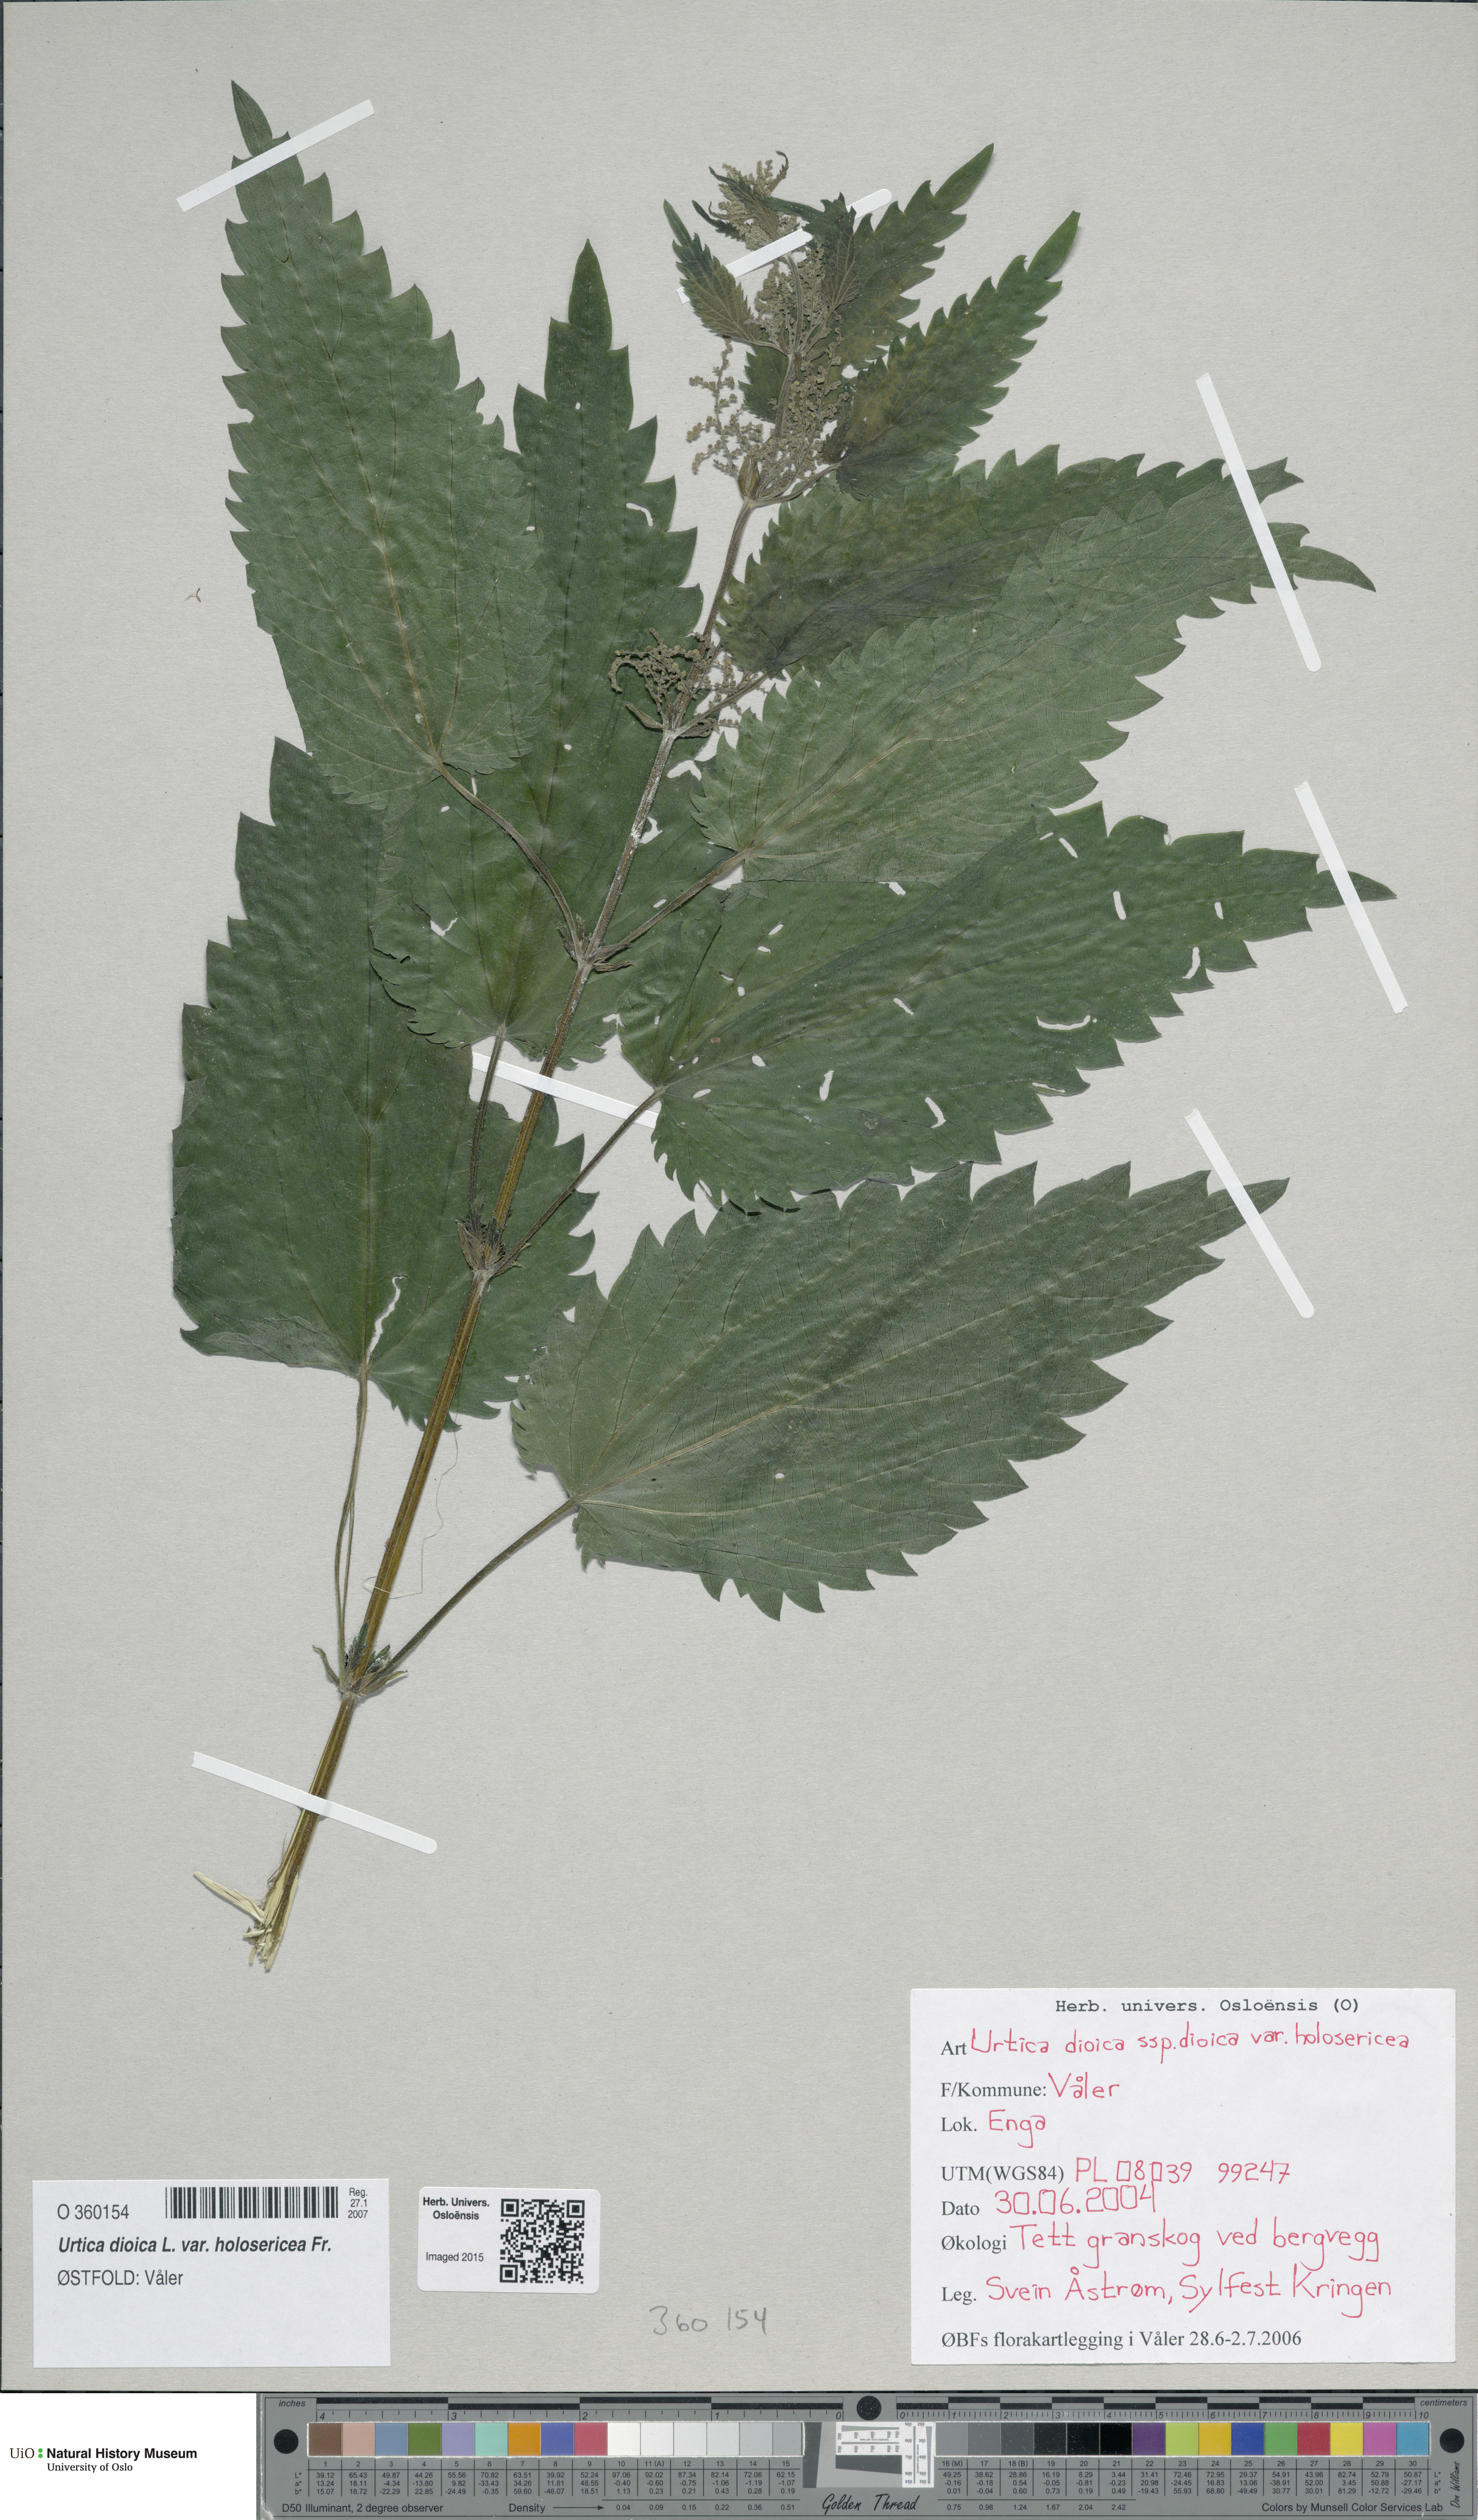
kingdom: Plantae
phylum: Tracheophyta
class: Magnoliopsida
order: Rosales
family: Urticaceae
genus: Urtica
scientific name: Urtica dioica
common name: Common nettle
